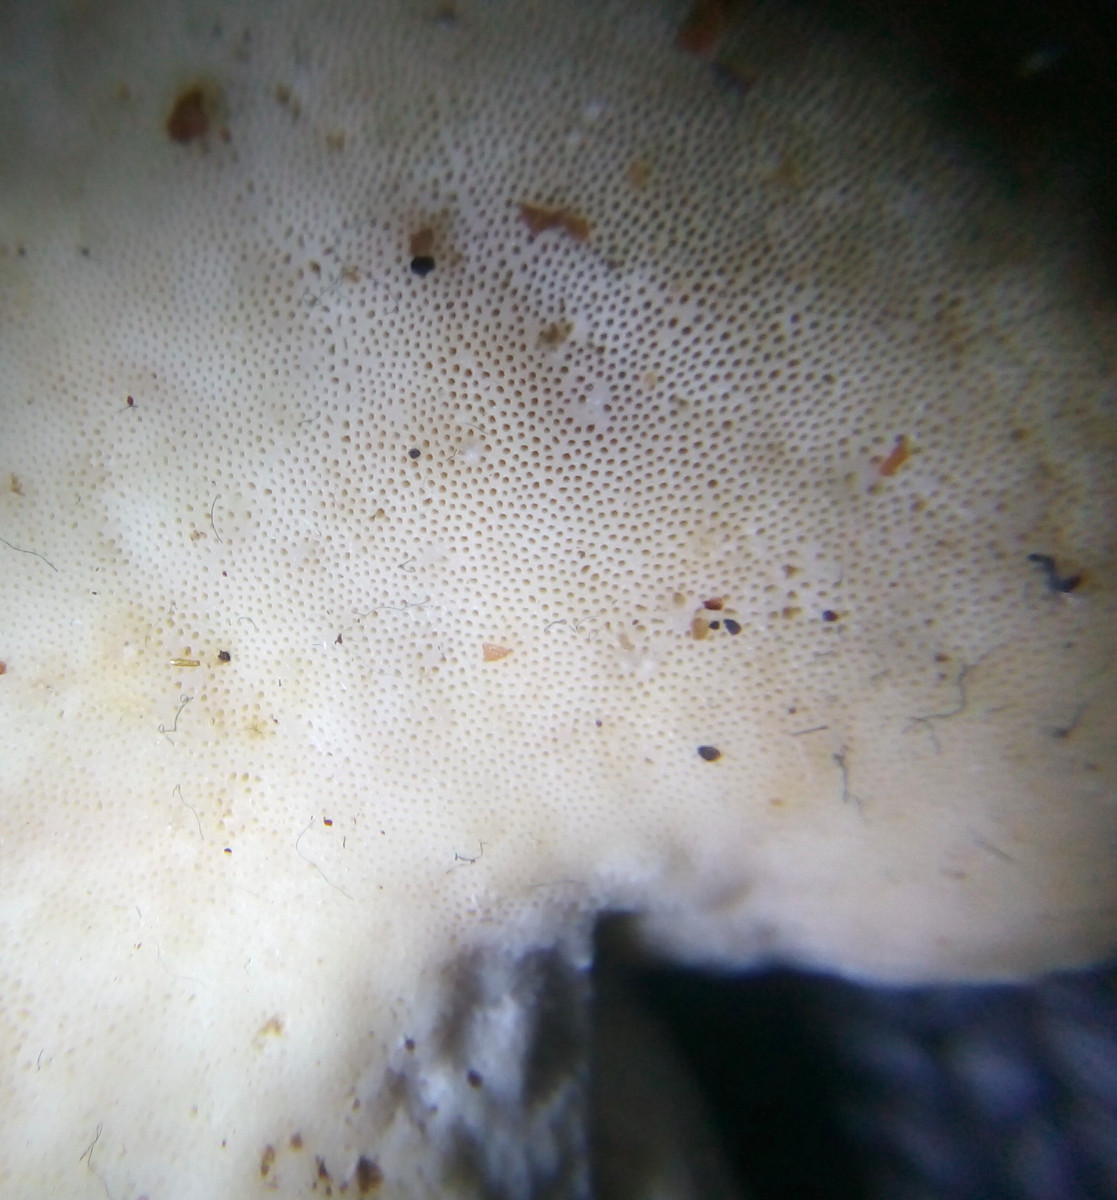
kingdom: Fungi
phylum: Basidiomycota
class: Agaricomycetes
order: Polyporales
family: Ischnodermataceae
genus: Ischnoderma
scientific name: Ischnoderma resinosum
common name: løv-tjæreporesvamp
